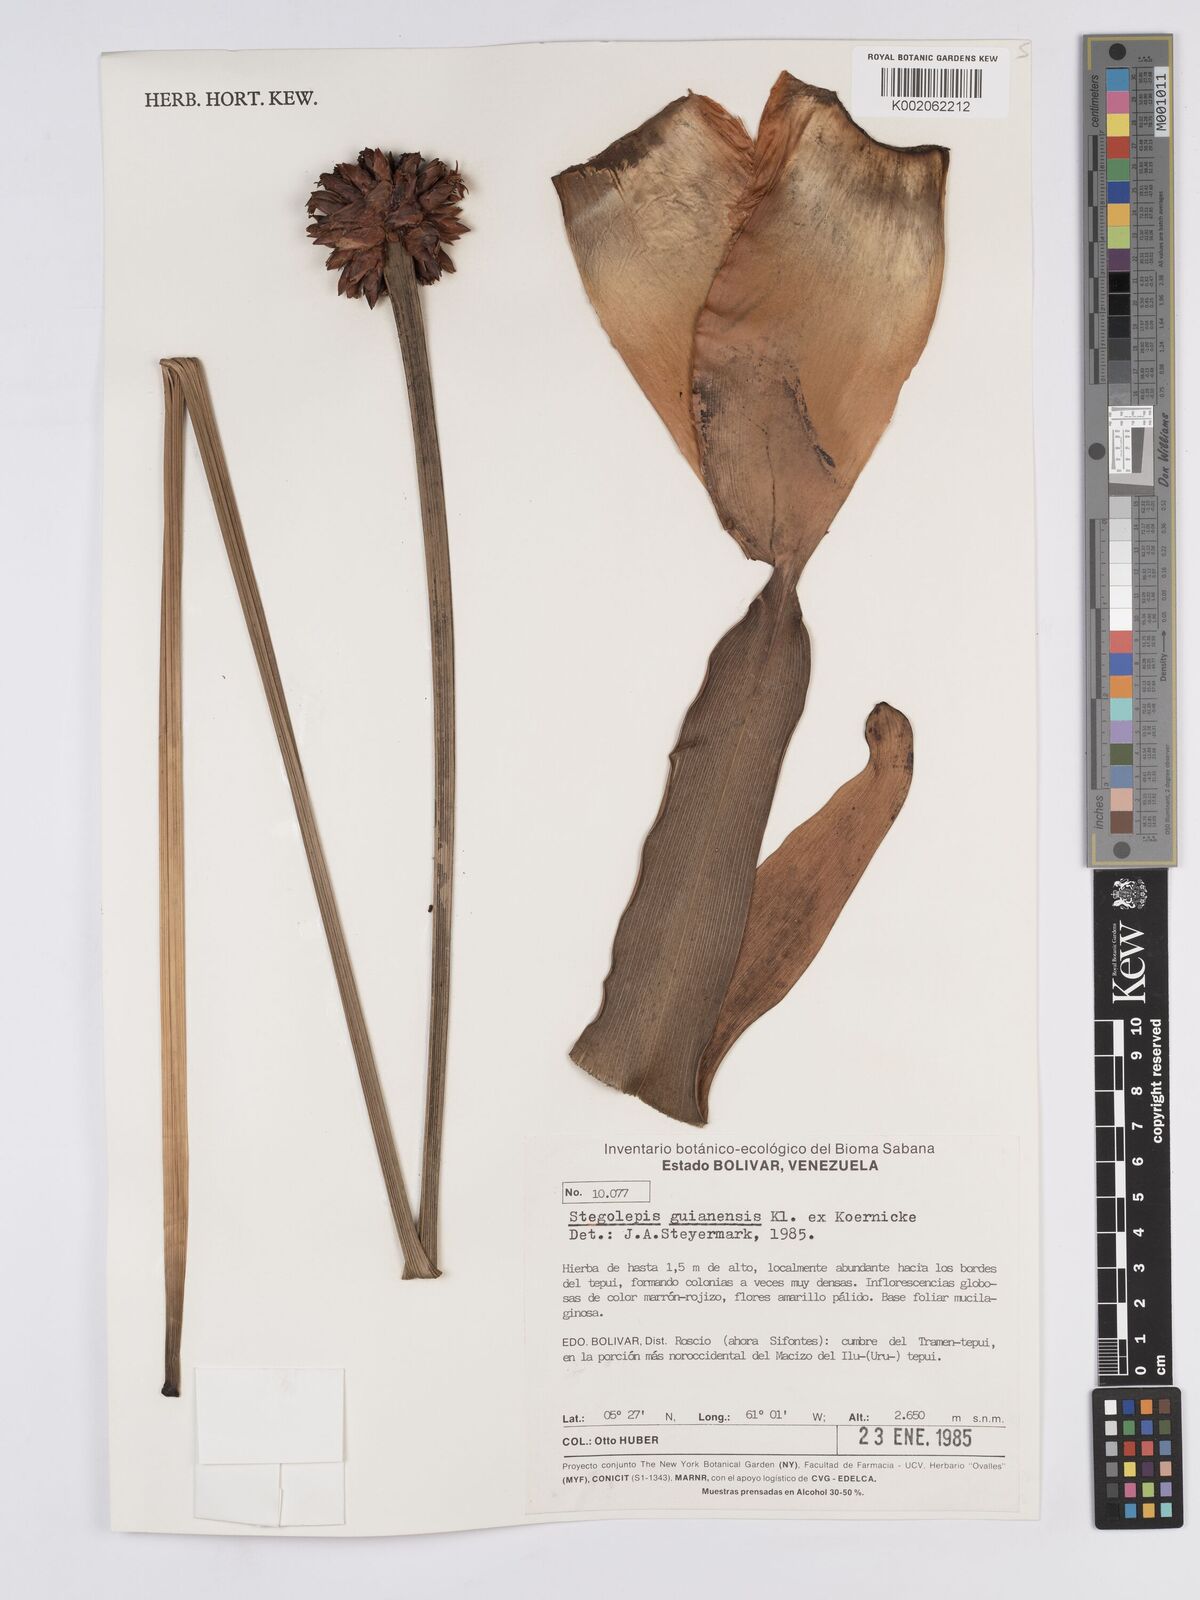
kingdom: Plantae
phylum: Tracheophyta
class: Liliopsida
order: Poales
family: Rapateaceae
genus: Stegolepis
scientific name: Stegolepis guianensis
